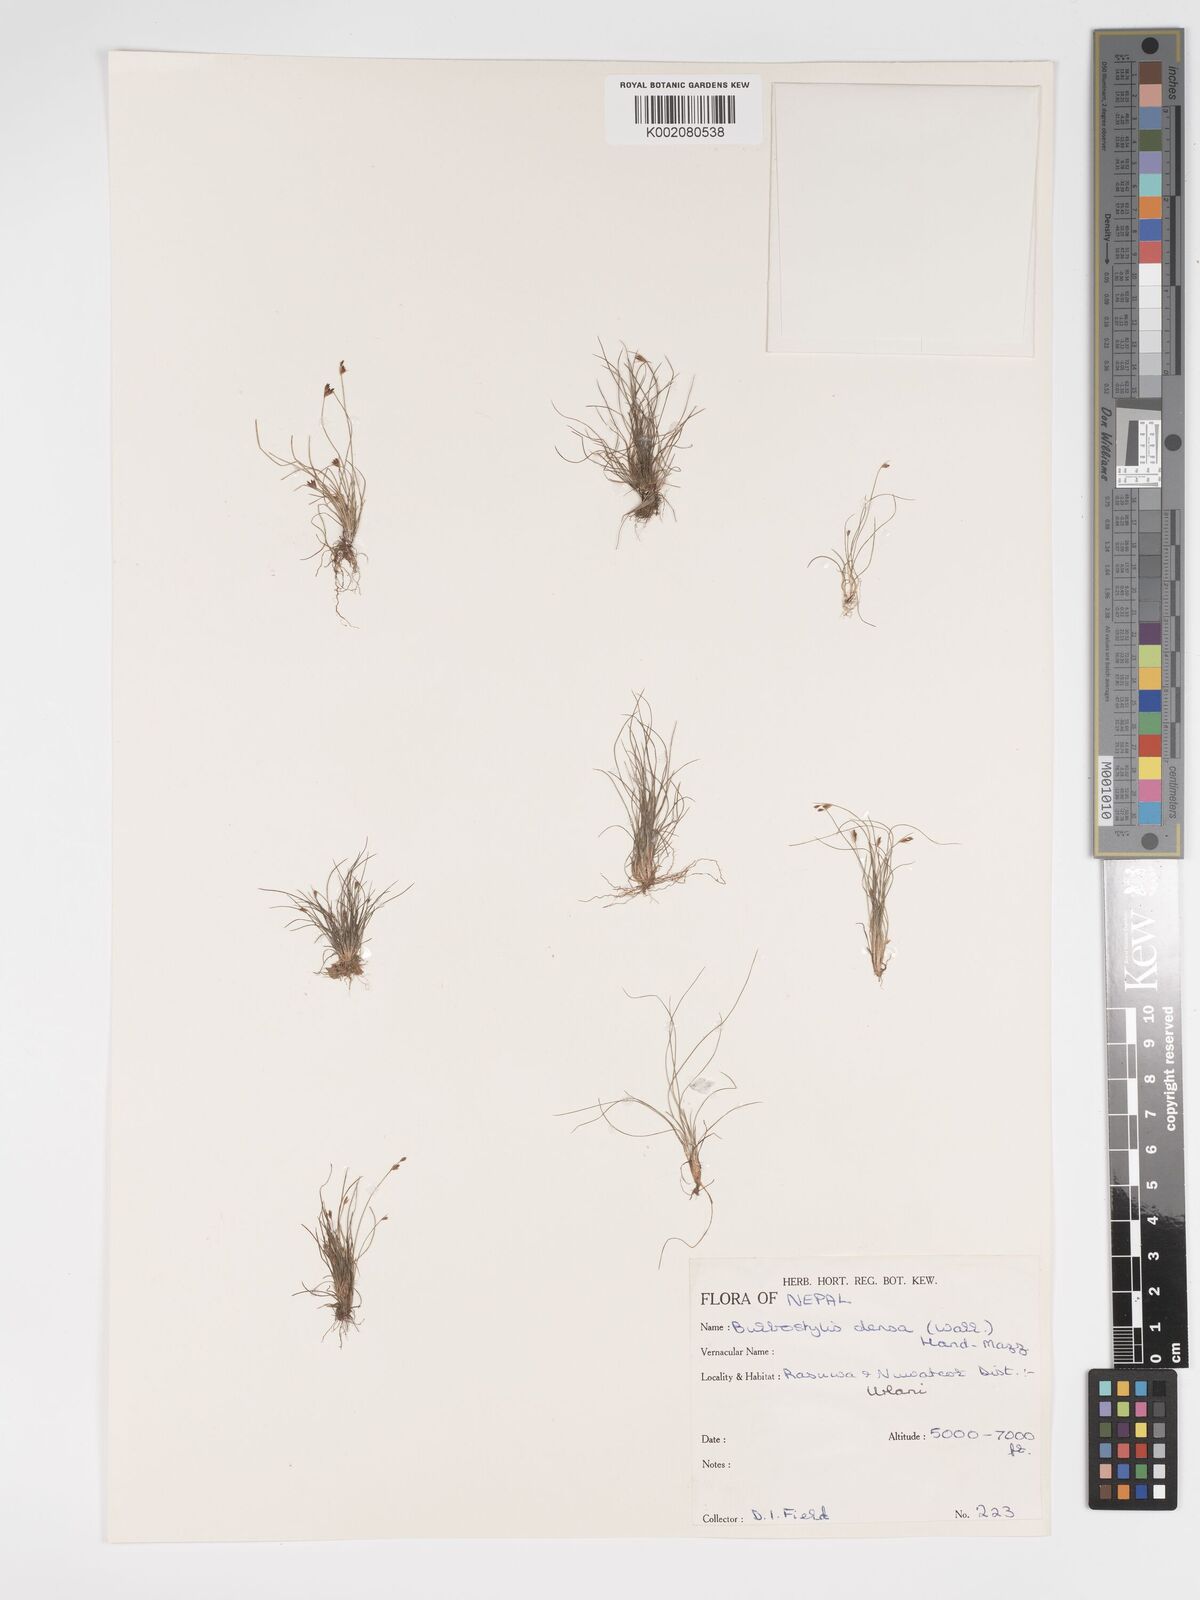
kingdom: Plantae
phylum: Tracheophyta
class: Liliopsida
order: Poales
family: Cyperaceae
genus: Bulbostylis
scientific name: Bulbostylis densa
